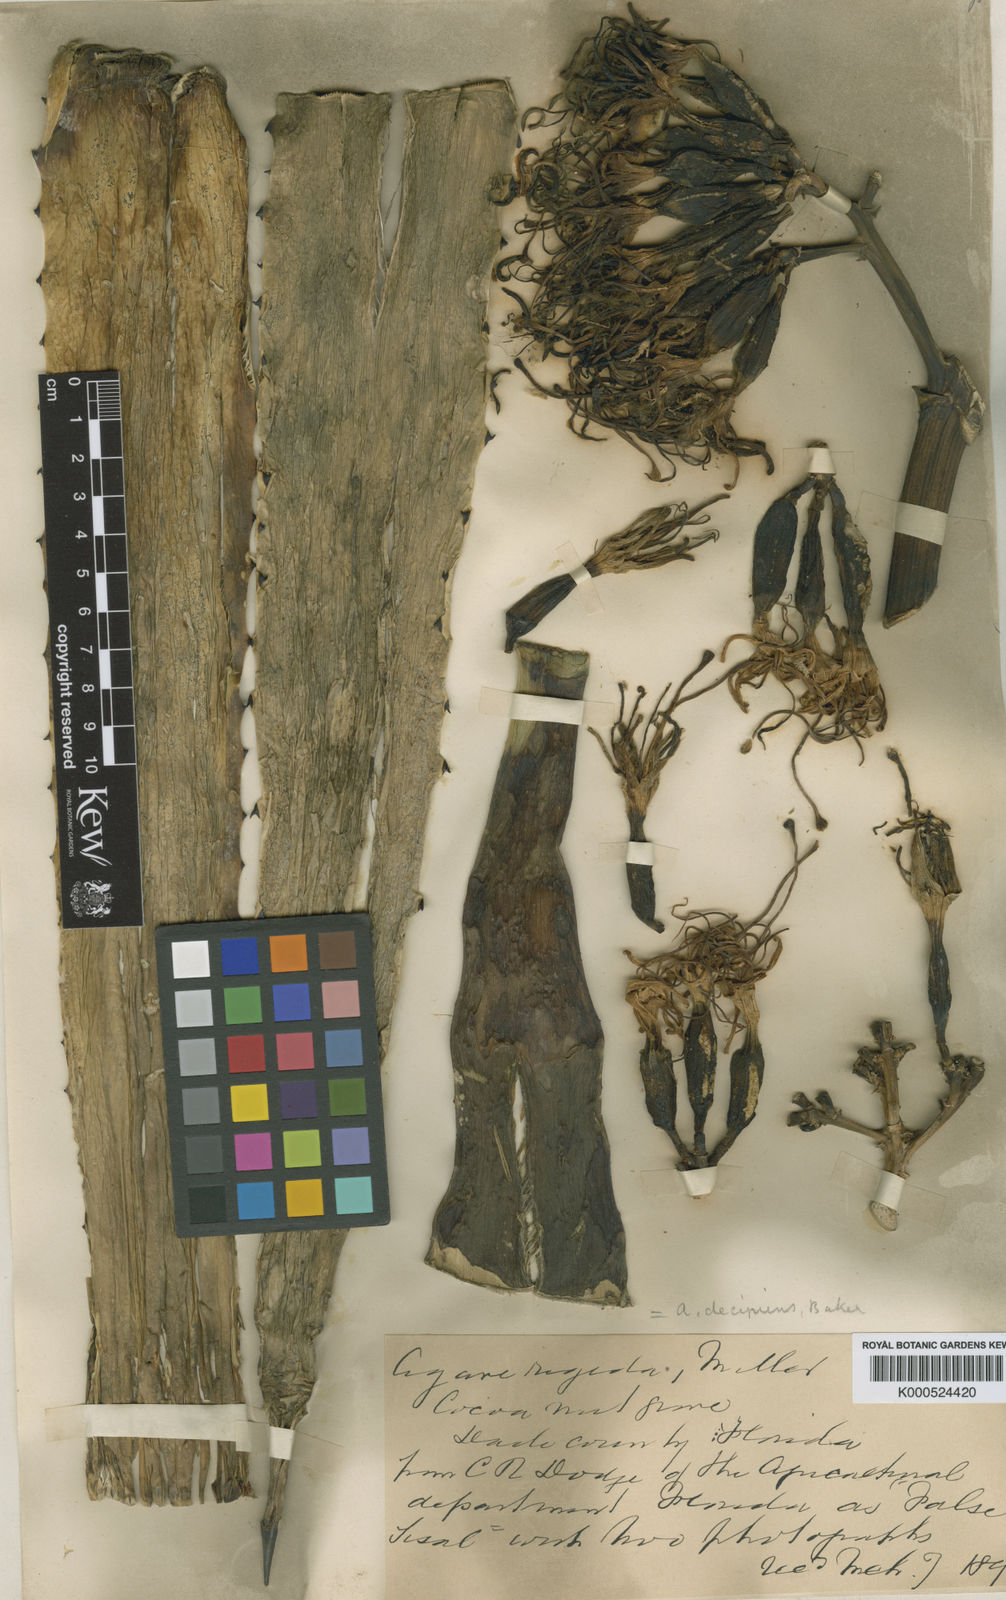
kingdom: Plantae
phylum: Tracheophyta
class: Liliopsida
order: Asparagales
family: Asparagaceae
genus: Agave
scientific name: Agave decipiens
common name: False sisal
